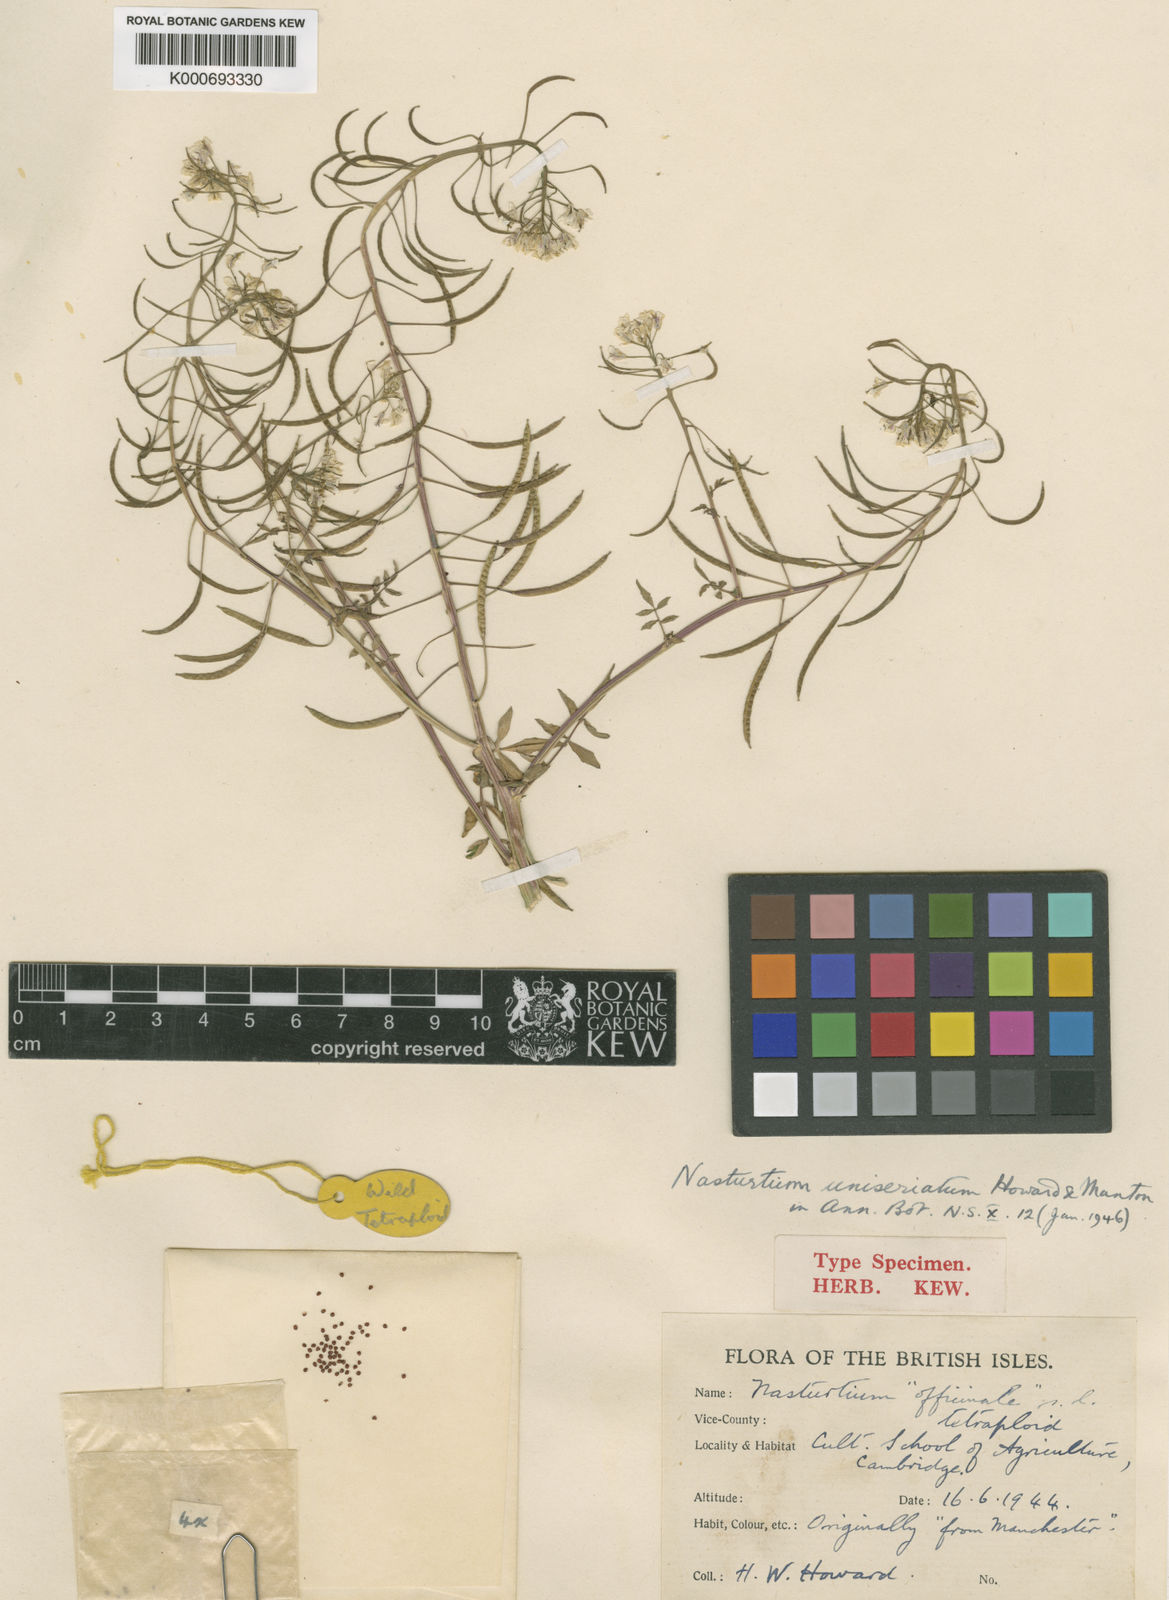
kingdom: Plantae
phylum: Tracheophyta
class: Magnoliopsida
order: Brassicales
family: Brassicaceae
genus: Nasturtium
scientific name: Nasturtium microphyllum
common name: Onerow yellowcress
